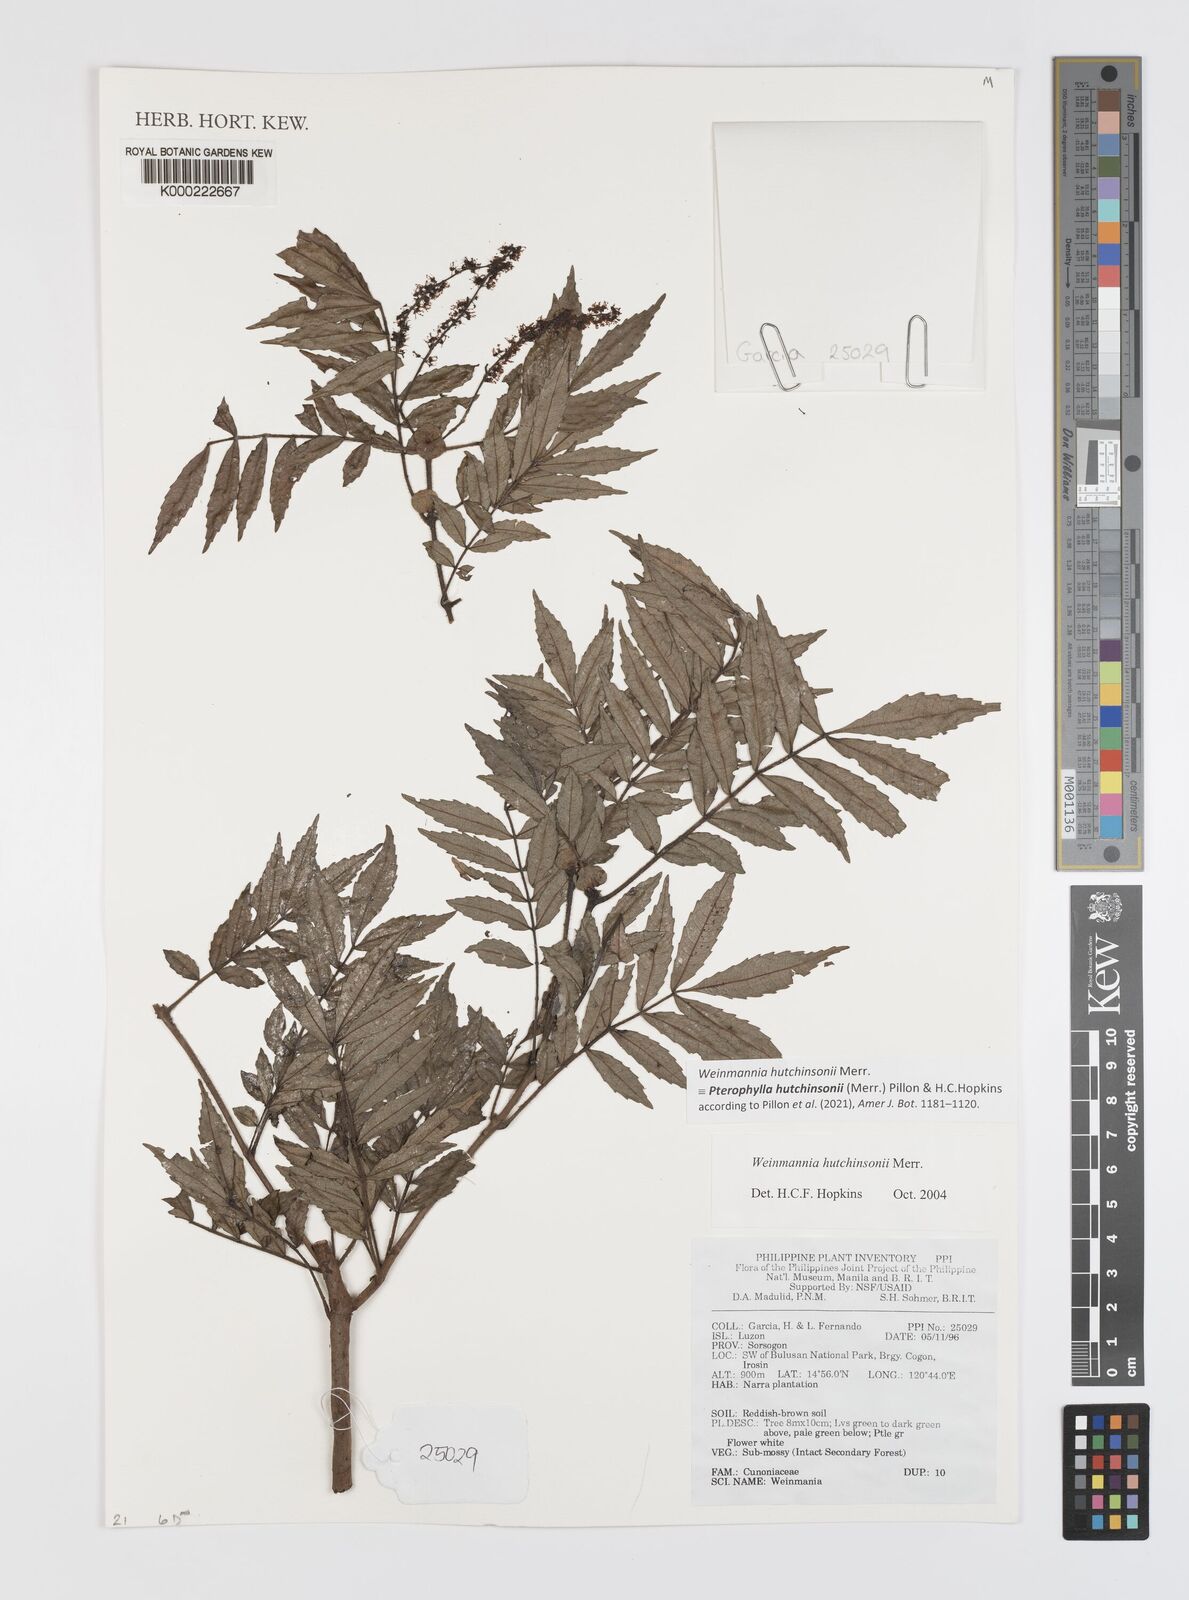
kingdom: Plantae
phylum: Tracheophyta
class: Magnoliopsida
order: Oxalidales
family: Cunoniaceae
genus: Pterophylla
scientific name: Pterophylla hutchinsonii
